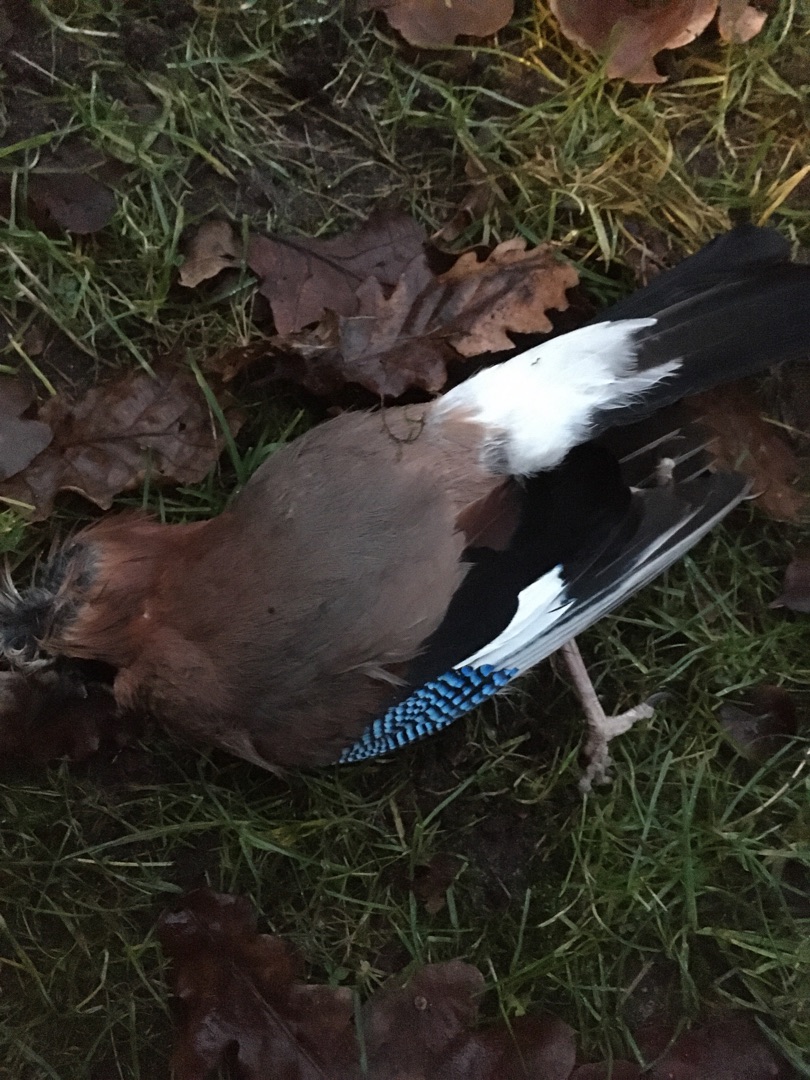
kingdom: Animalia
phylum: Chordata
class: Aves
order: Passeriformes
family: Corvidae
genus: Garrulus
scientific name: Garrulus glandarius
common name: Skovskade
